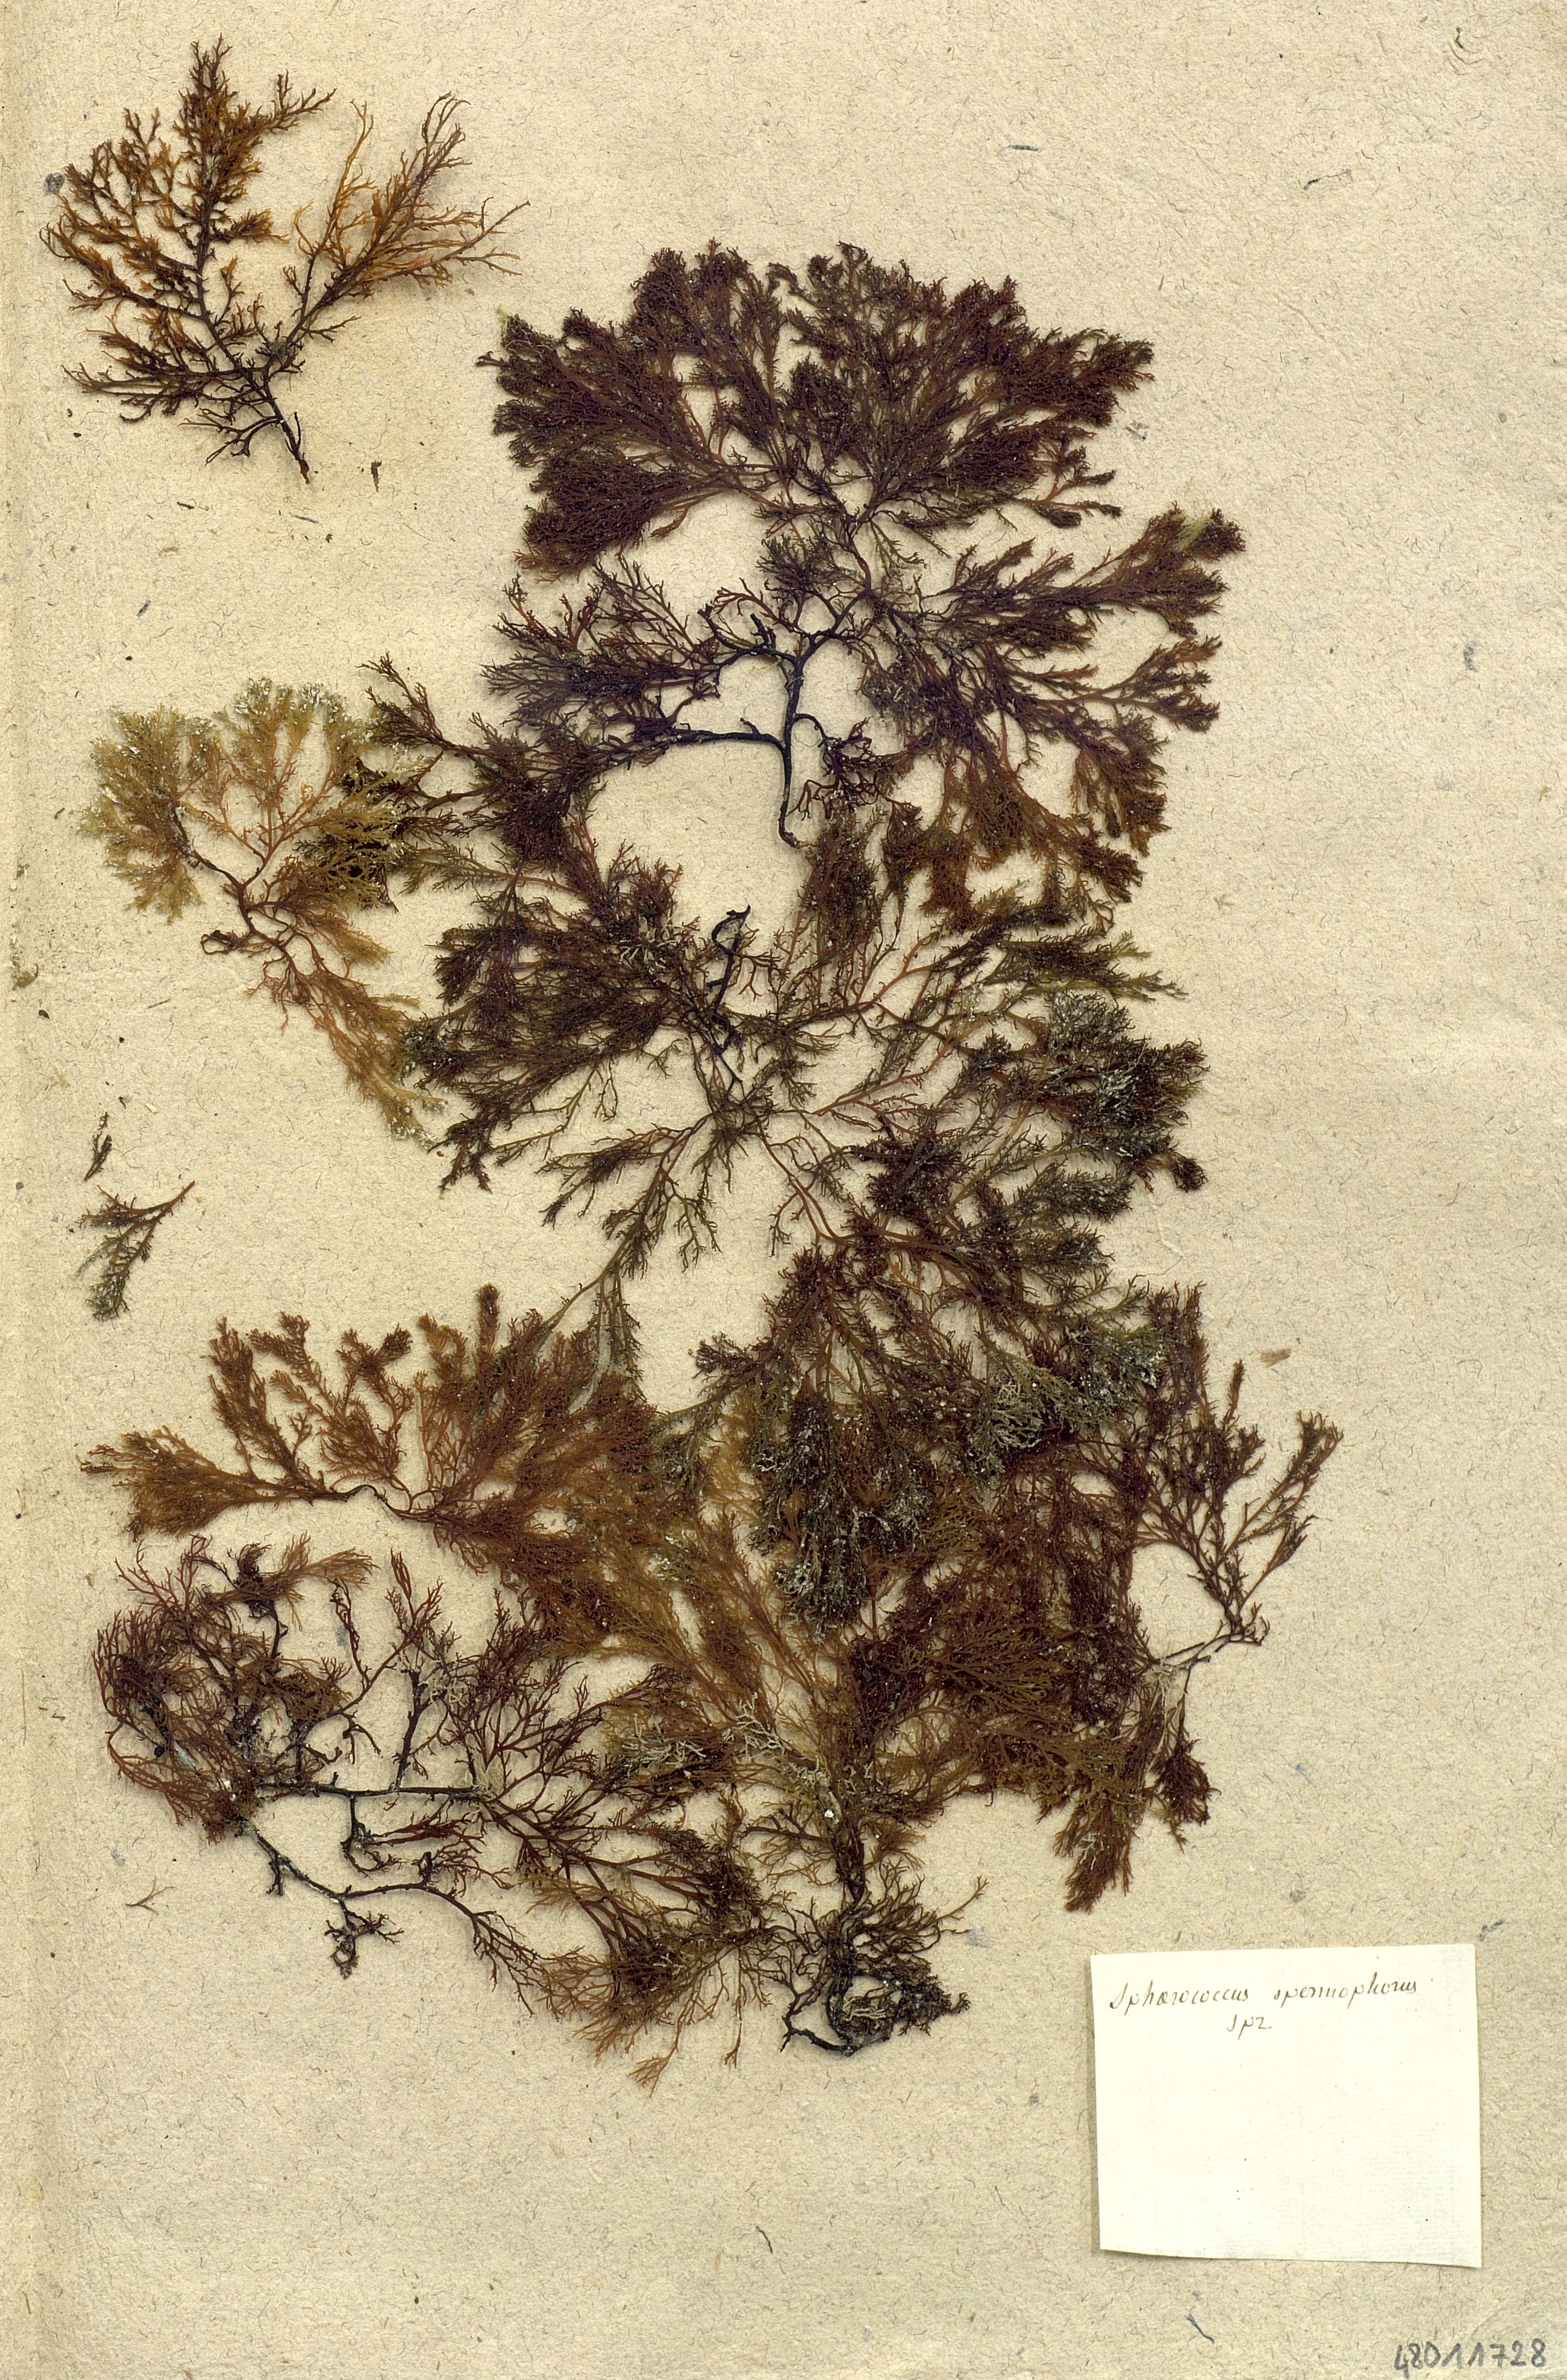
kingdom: Plantae
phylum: Rhodophyta
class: Florideophyceae
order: Gigartinales
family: Sphaerococcaceae
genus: Sphaerococcus
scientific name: Sphaerococcus
